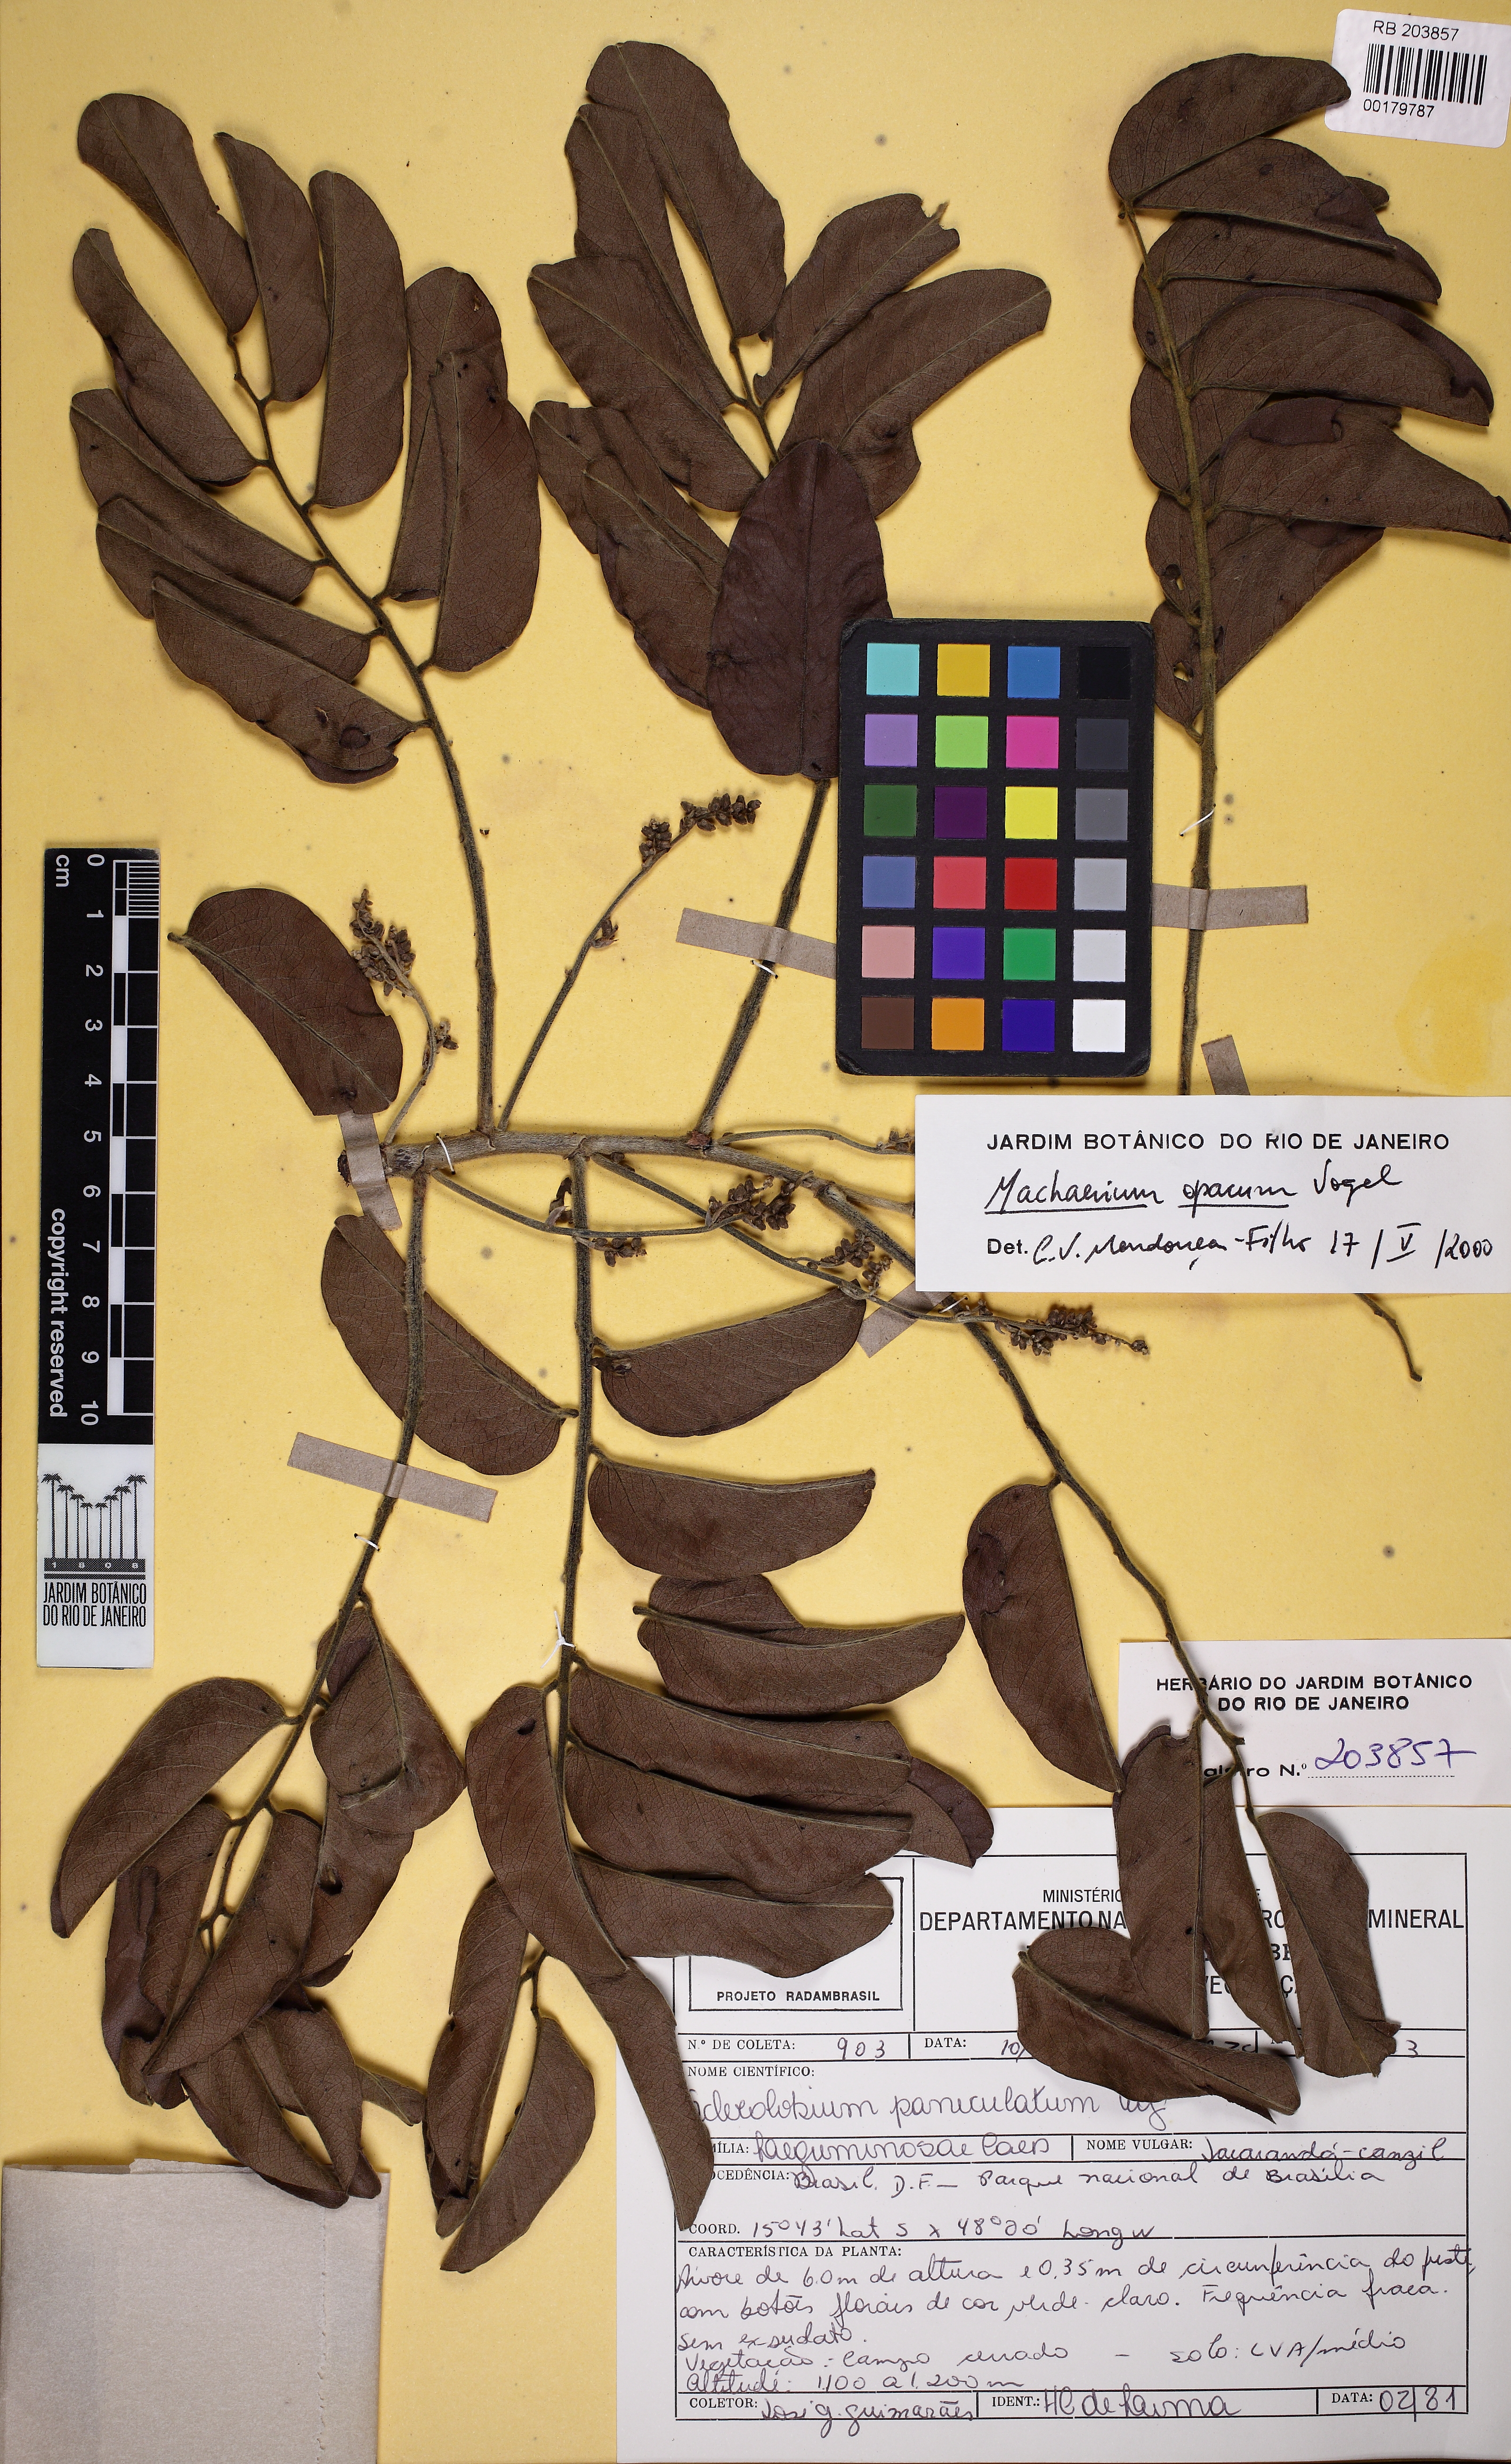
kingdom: Plantae
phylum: Tracheophyta
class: Magnoliopsida
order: Fabales
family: Fabaceae
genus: Machaerium
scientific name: Machaerium opacum
